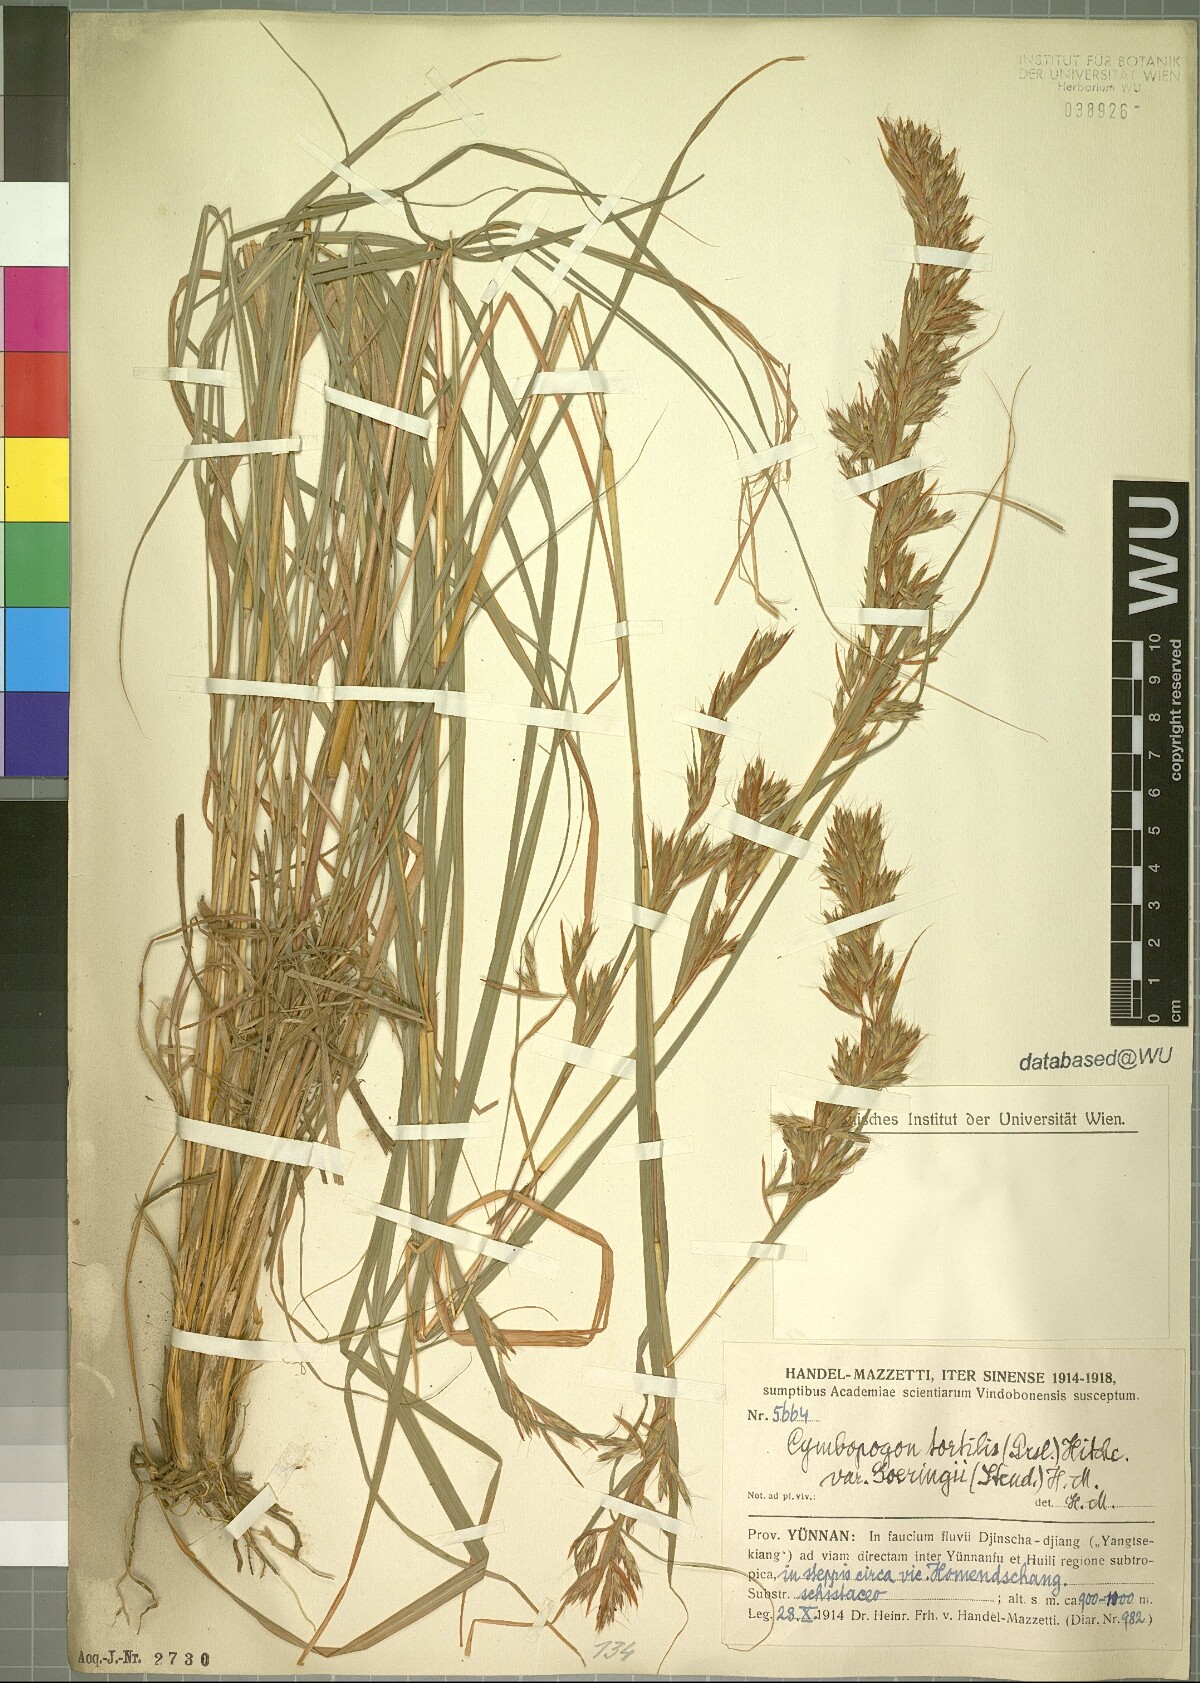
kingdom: Plantae
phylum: Tracheophyta
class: Liliopsida
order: Poales
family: Poaceae
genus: Cymbopogon
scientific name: Cymbopogon tortilis
